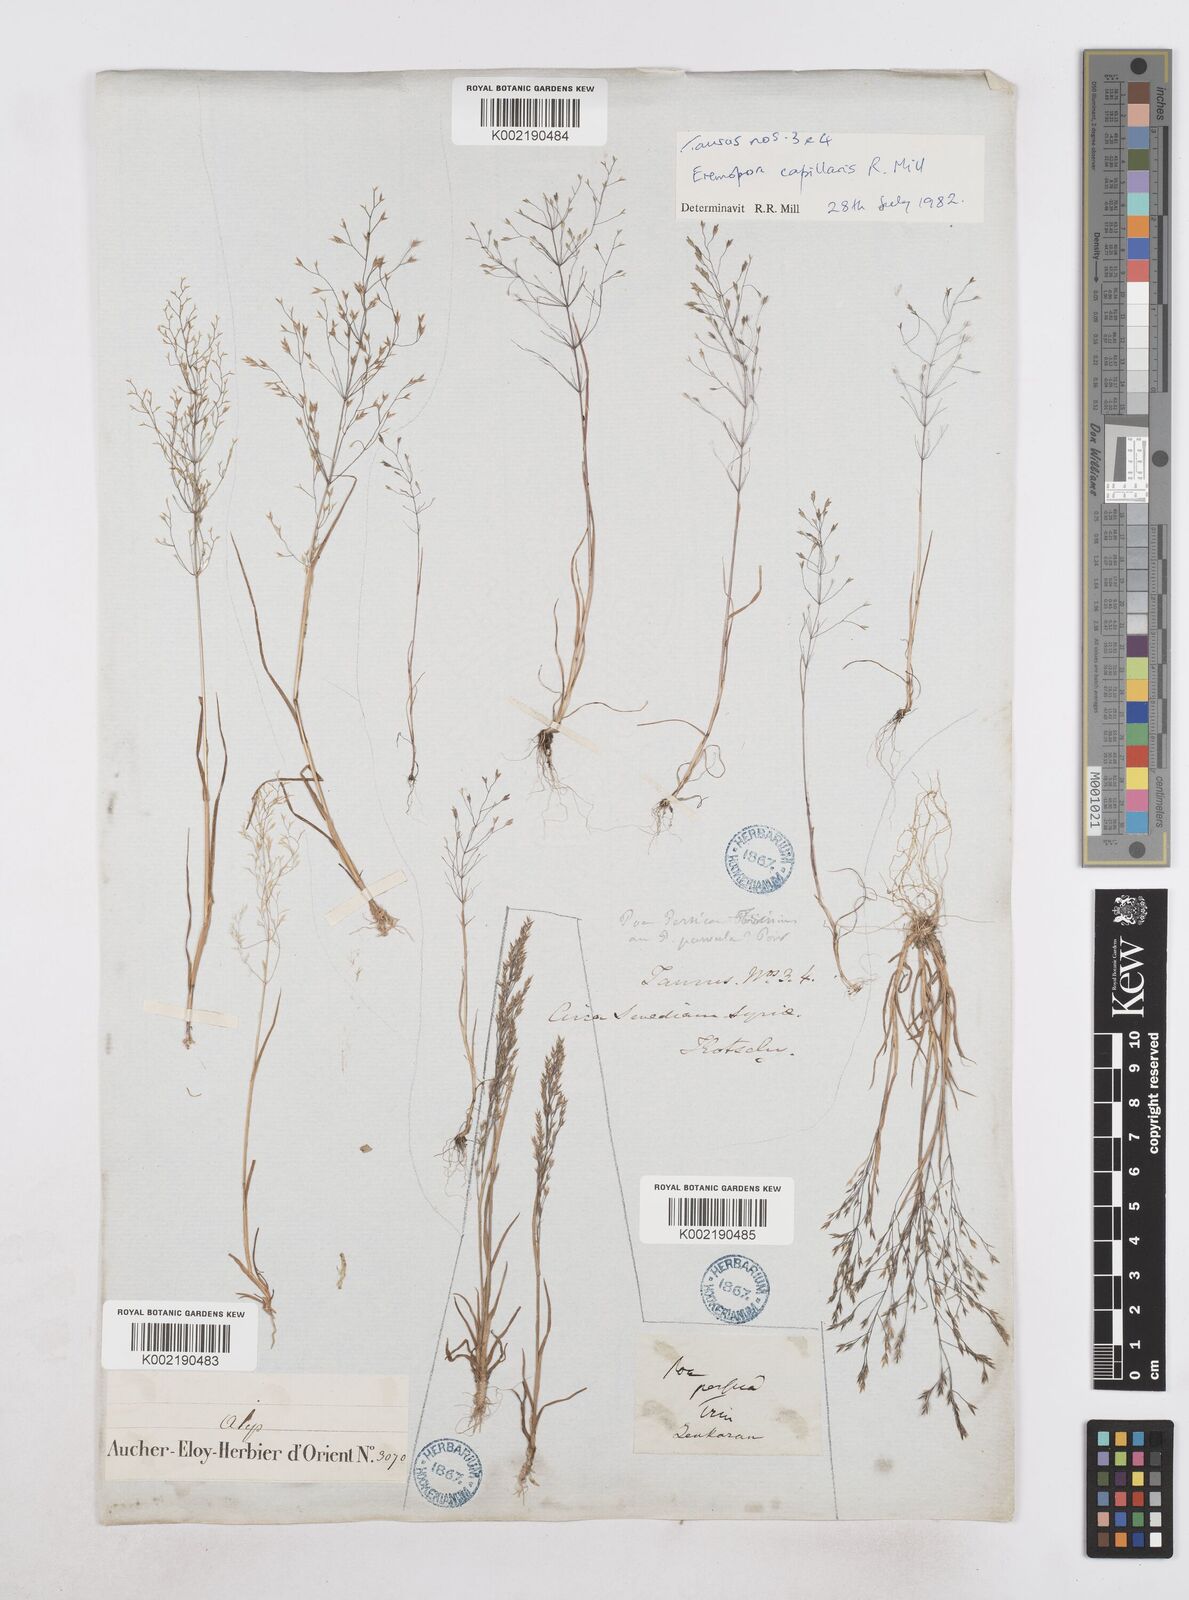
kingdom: Plantae
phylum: Tracheophyta
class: Liliopsida
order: Poales
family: Poaceae
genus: Poa
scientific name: Poa millii
